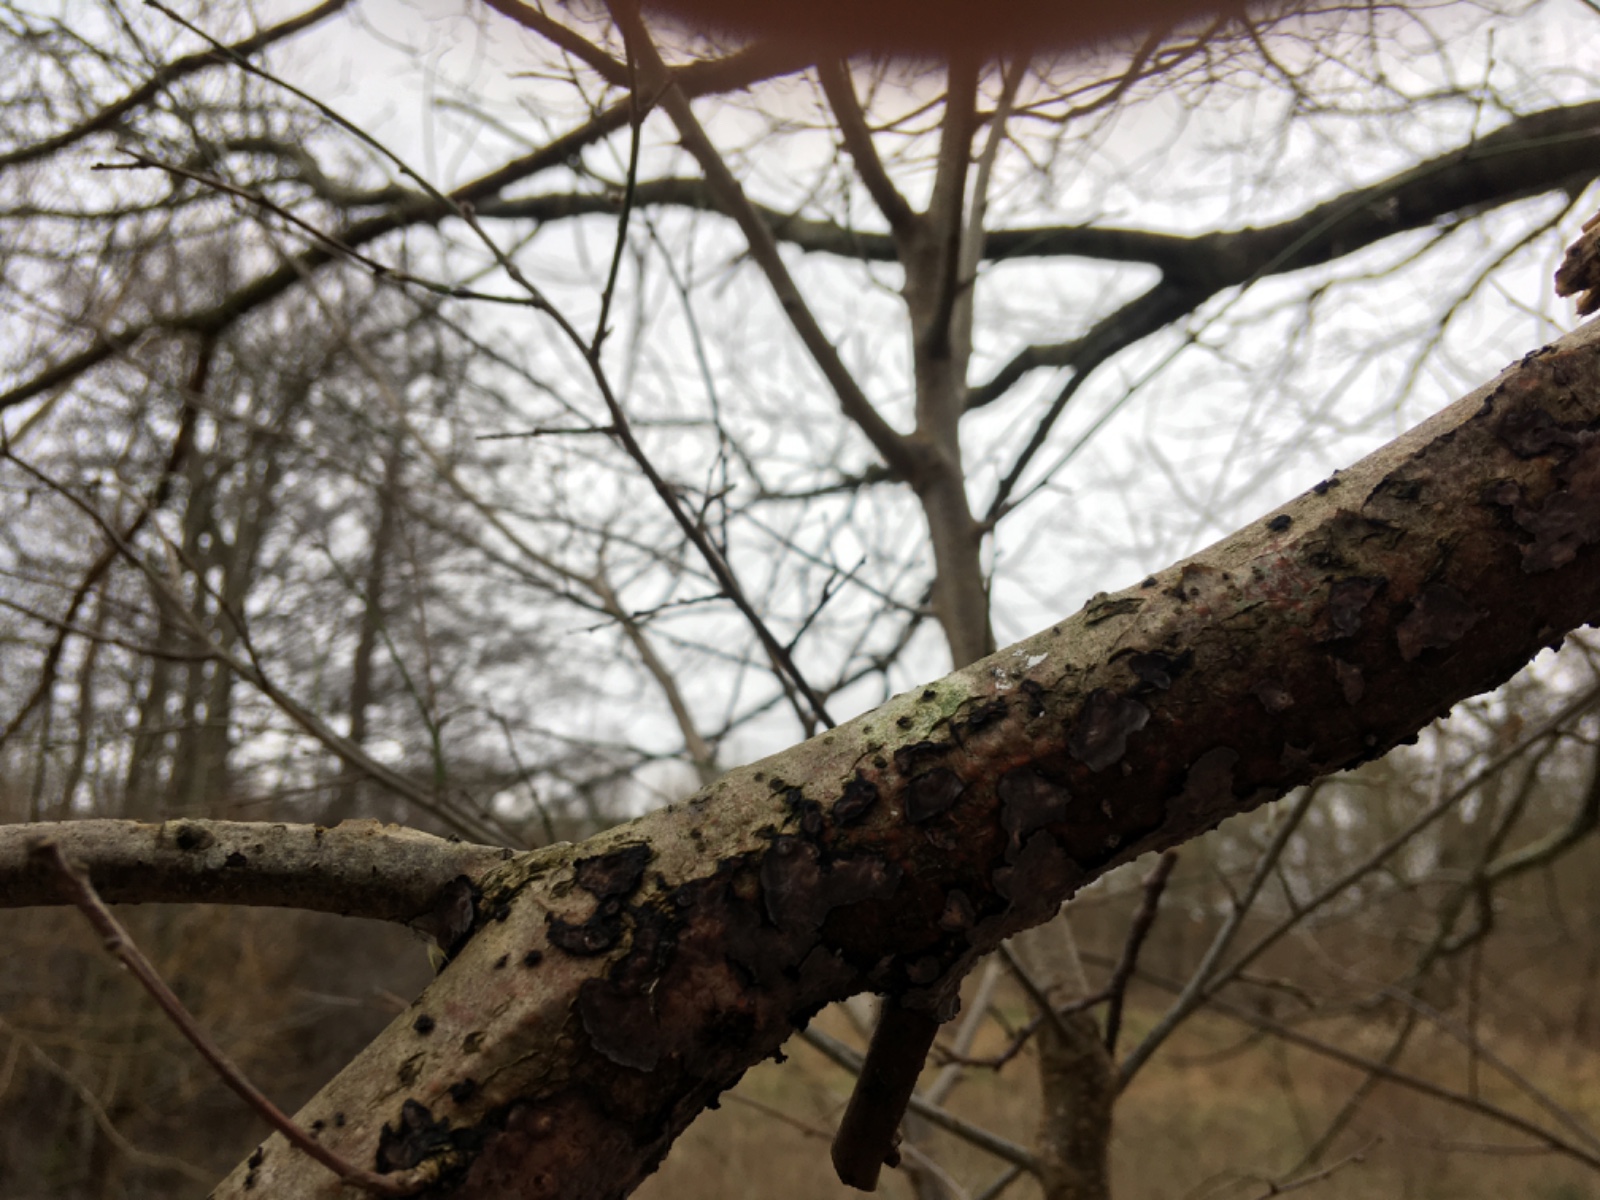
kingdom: Fungi
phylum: Basidiomycota
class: Agaricomycetes
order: Russulales
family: Peniophoraceae
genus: Peniophora
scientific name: Peniophora quercina
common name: ege-voksskind
